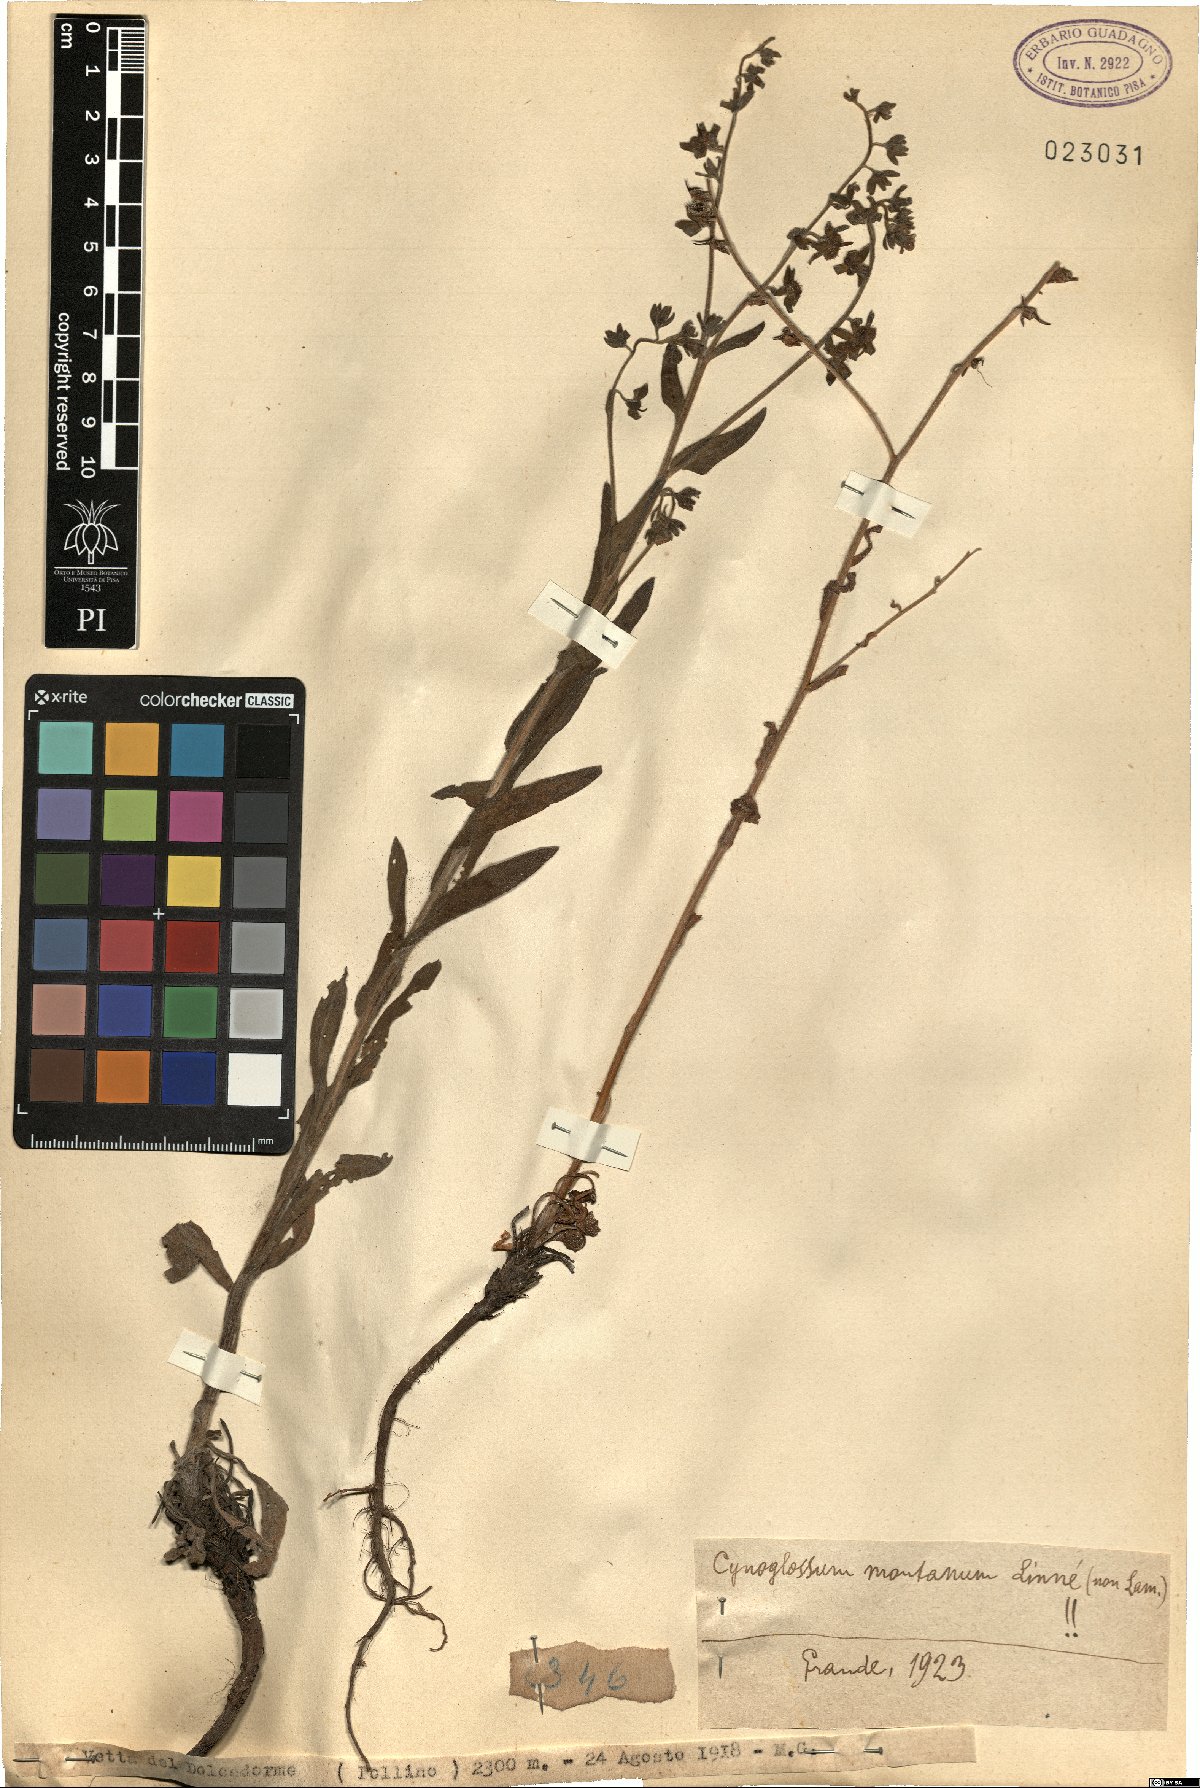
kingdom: Plantae
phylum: Tracheophyta
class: Magnoliopsida
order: Boraginales
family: Boraginaceae
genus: Cynoglossum
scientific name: Cynoglossum montanum
